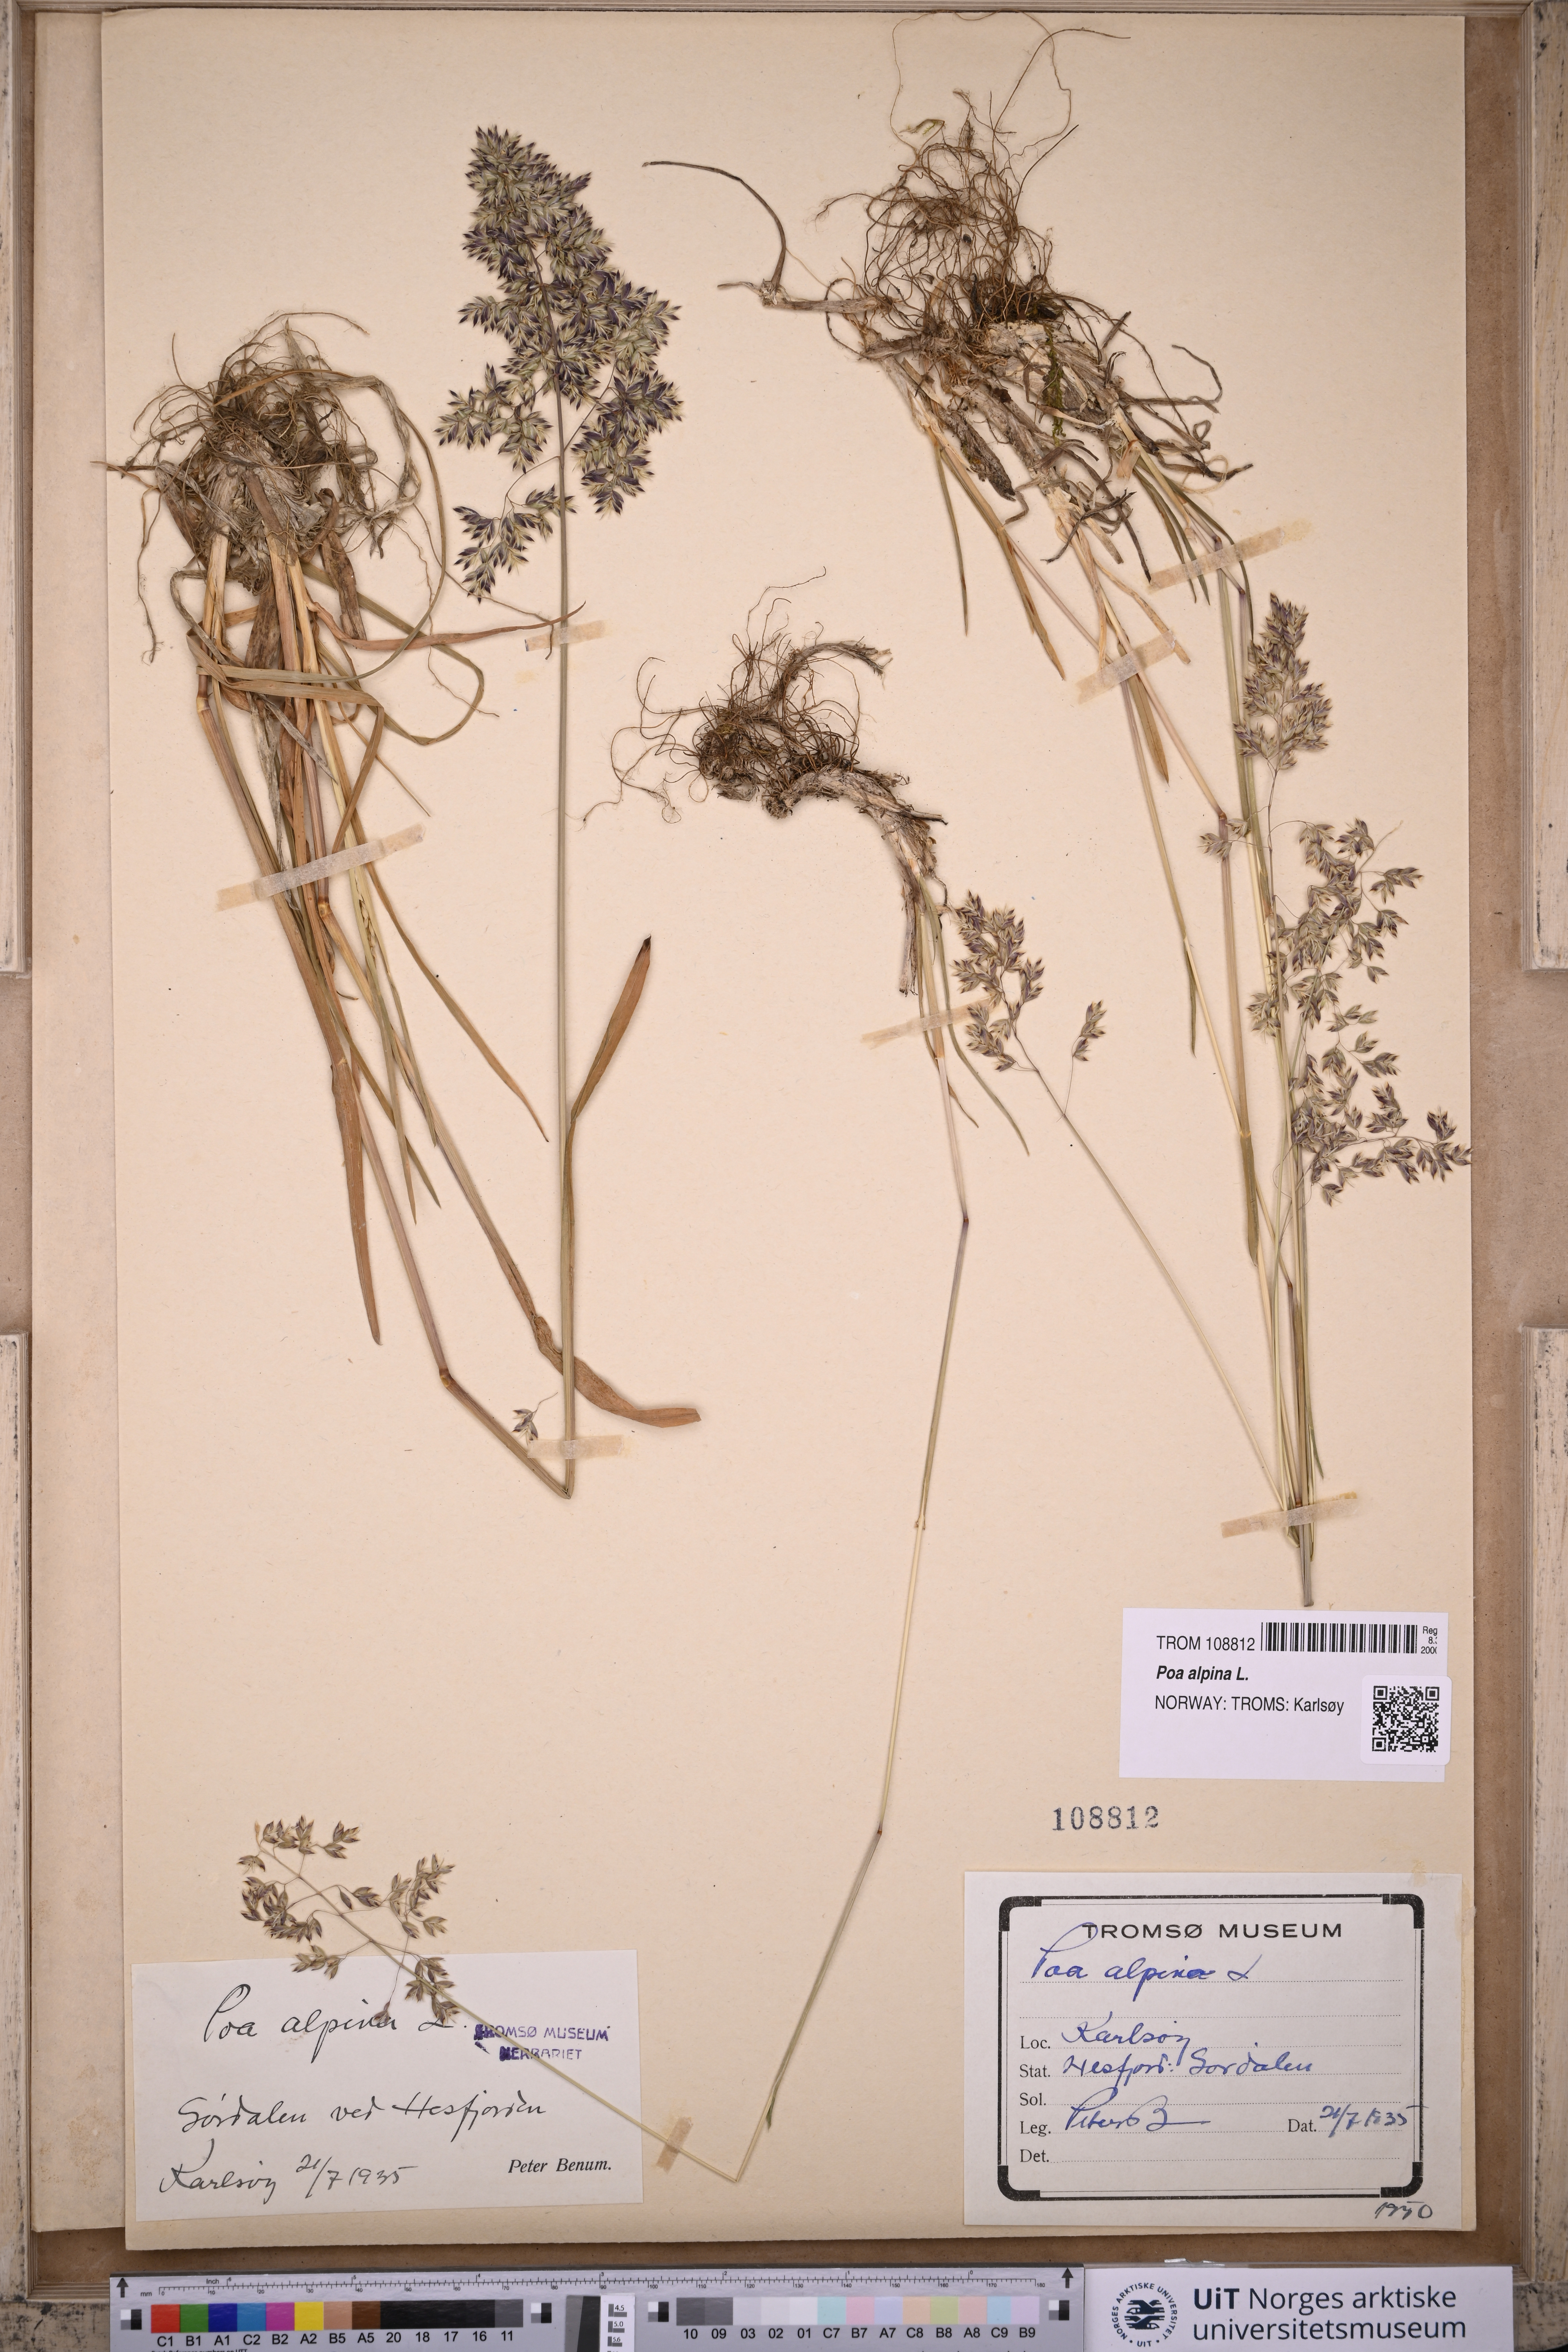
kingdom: Plantae
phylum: Tracheophyta
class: Liliopsida
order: Poales
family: Poaceae
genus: Poa
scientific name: Poa alpina
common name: Alpine bluegrass
